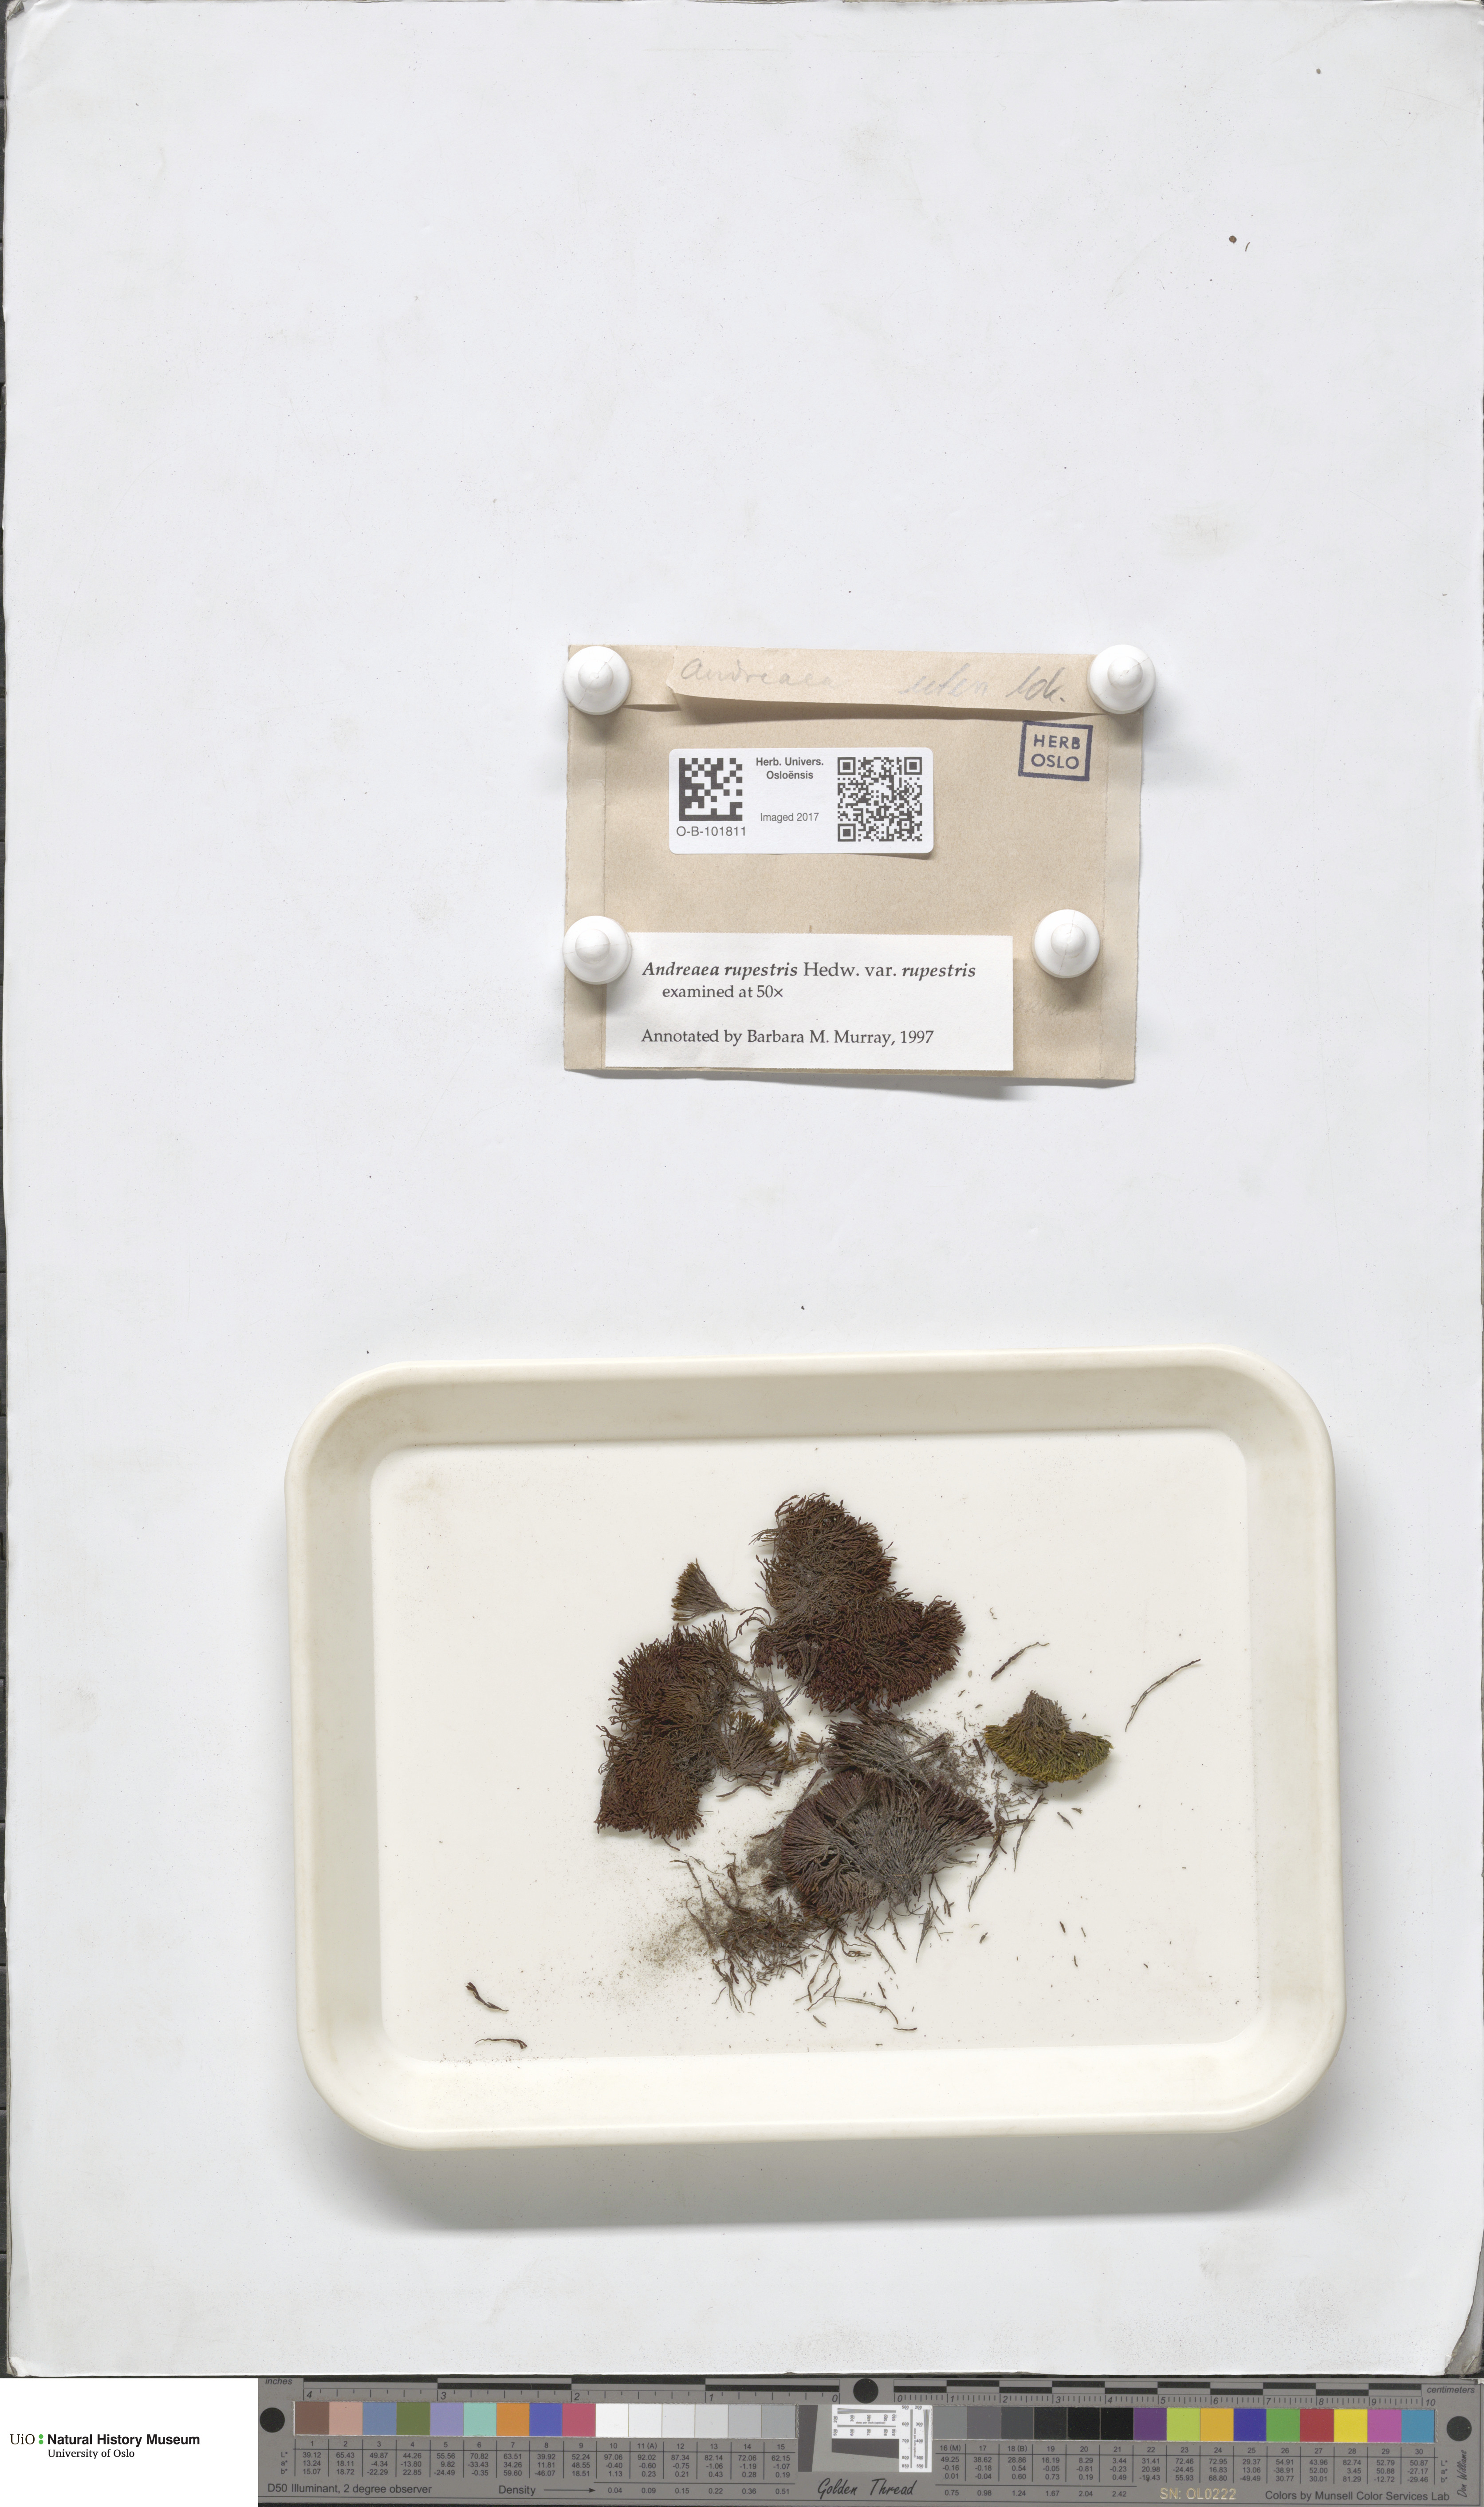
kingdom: Plantae
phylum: Bryophyta
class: Andreaeopsida
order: Andreaeales
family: Andreaeaceae
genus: Andreaea
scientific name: Andreaea rupestris
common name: Black rock moss
